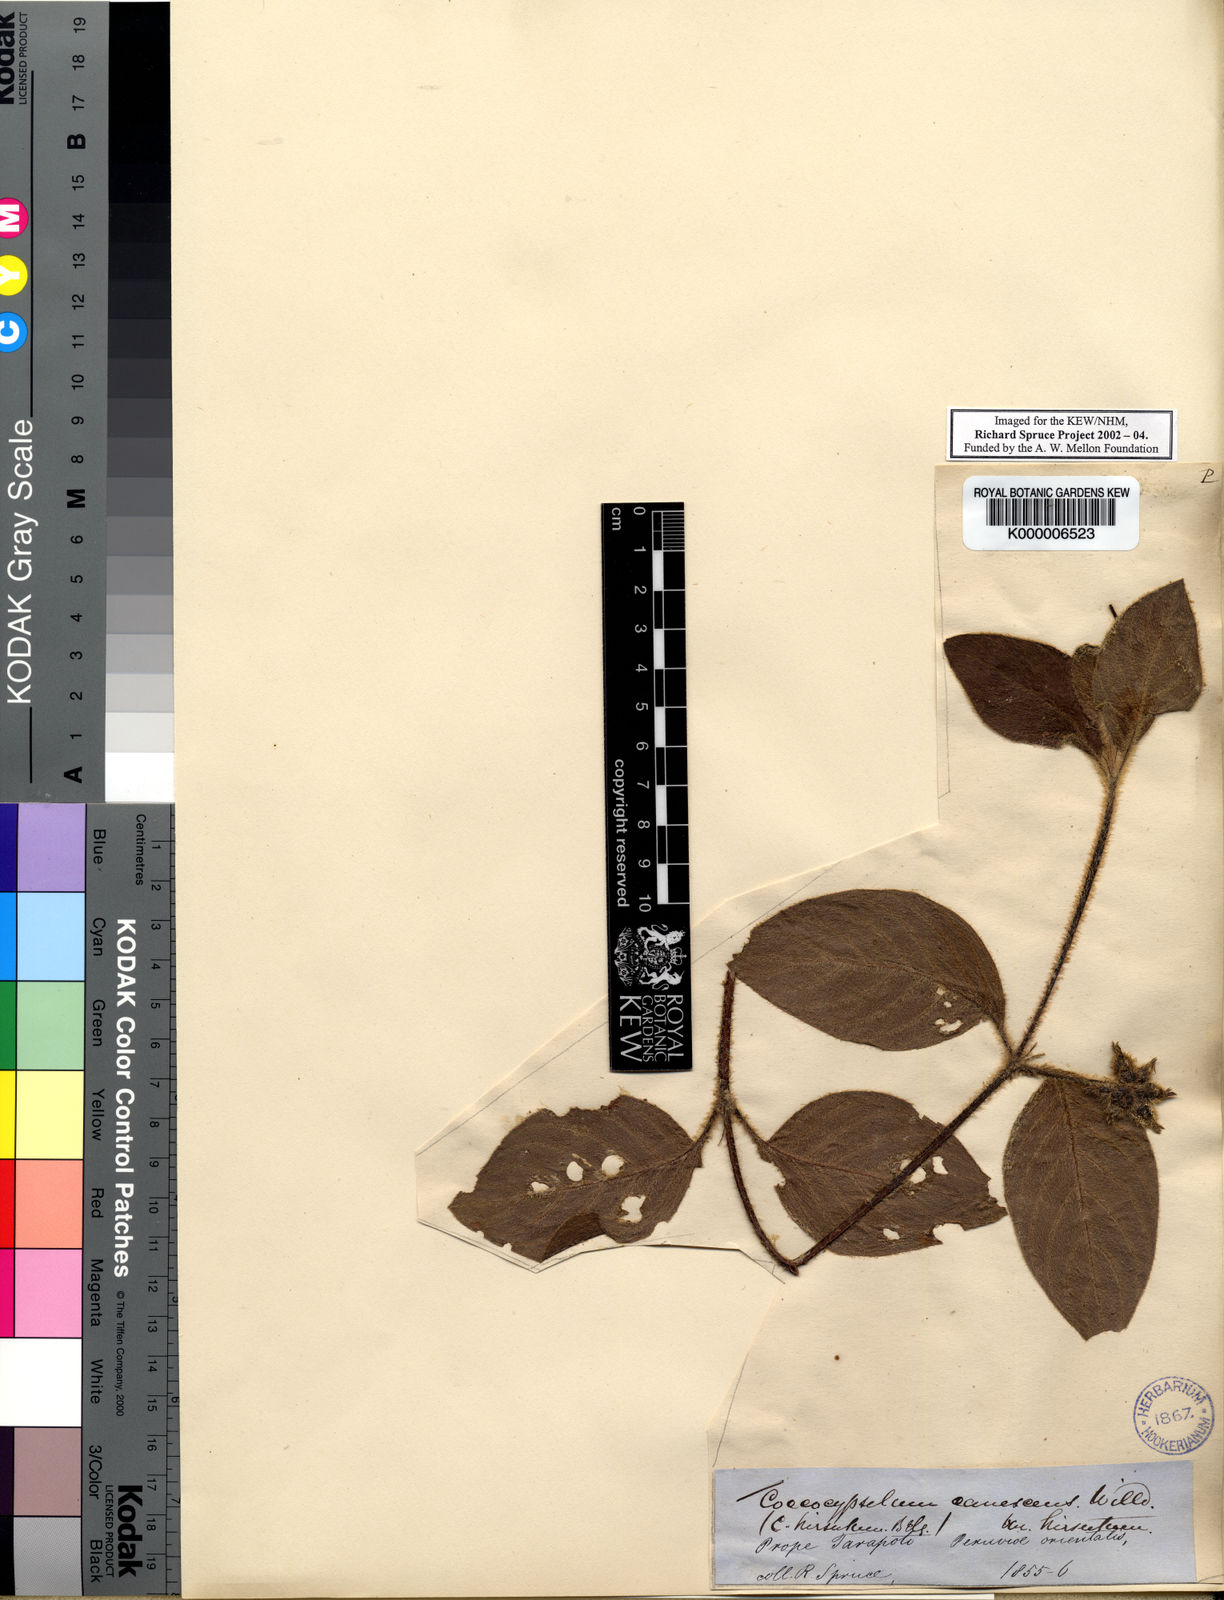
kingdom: Plantae
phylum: Tracheophyta
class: Magnoliopsida
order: Gentianales
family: Rubiaceae
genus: Coccocypselum
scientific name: Coccocypselum hirsutum
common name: Yerba de guava
